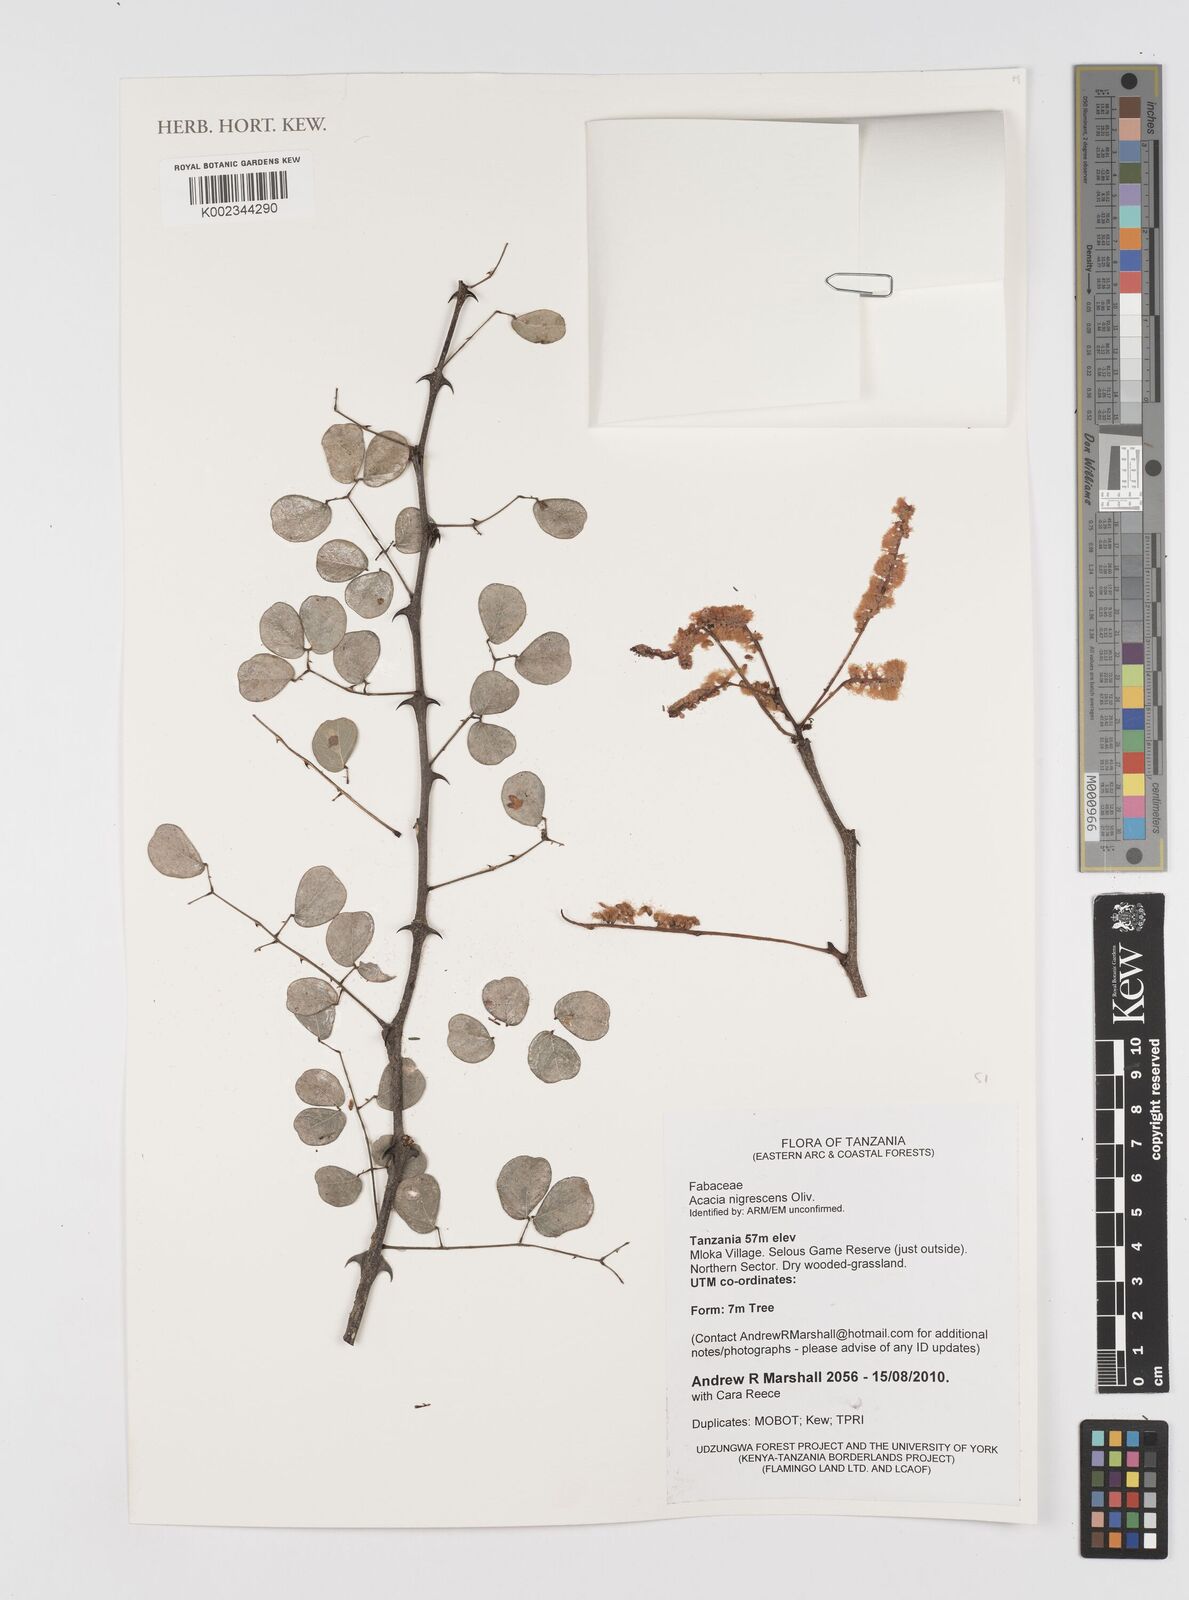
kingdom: Plantae
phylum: Tracheophyta
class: Magnoliopsida
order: Fabales
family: Fabaceae
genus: Senegalia
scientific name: Senegalia nigrescens
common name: Knobthorn
